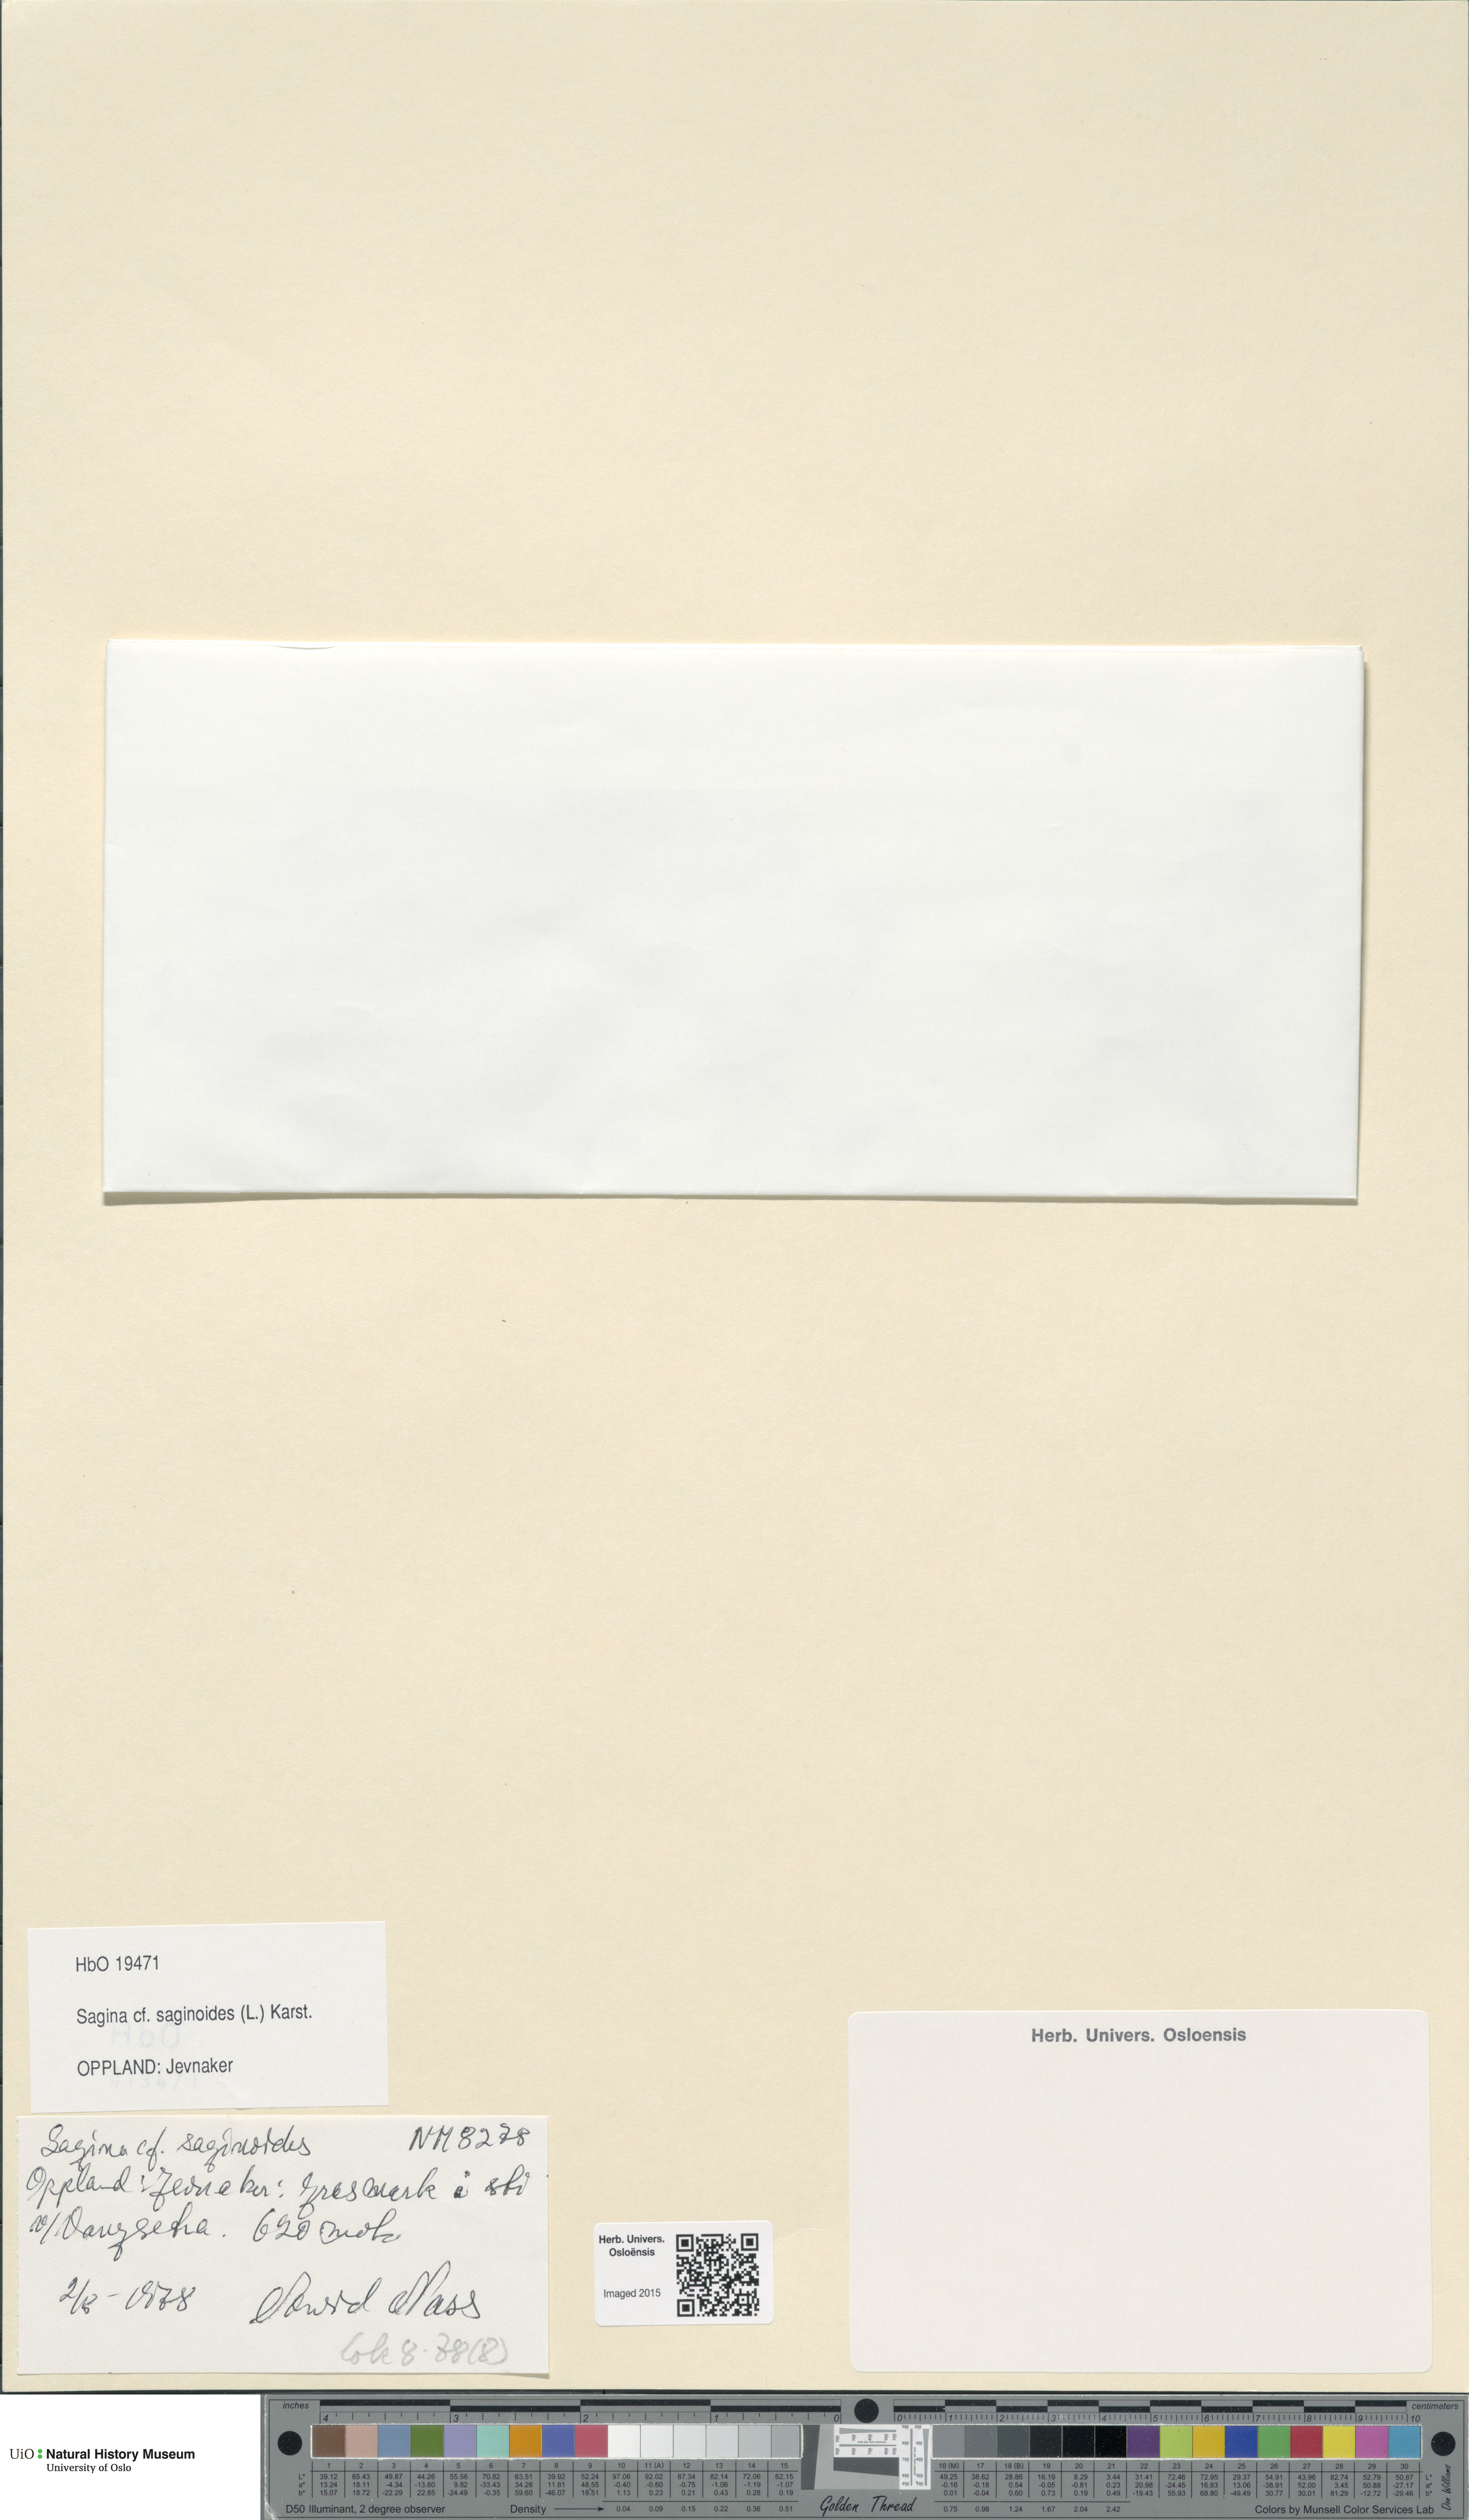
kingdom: Plantae
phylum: Tracheophyta
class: Magnoliopsida
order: Caryophyllales
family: Caryophyllaceae
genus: Sagina
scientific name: Sagina saginoides
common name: Alpine pearlwort
